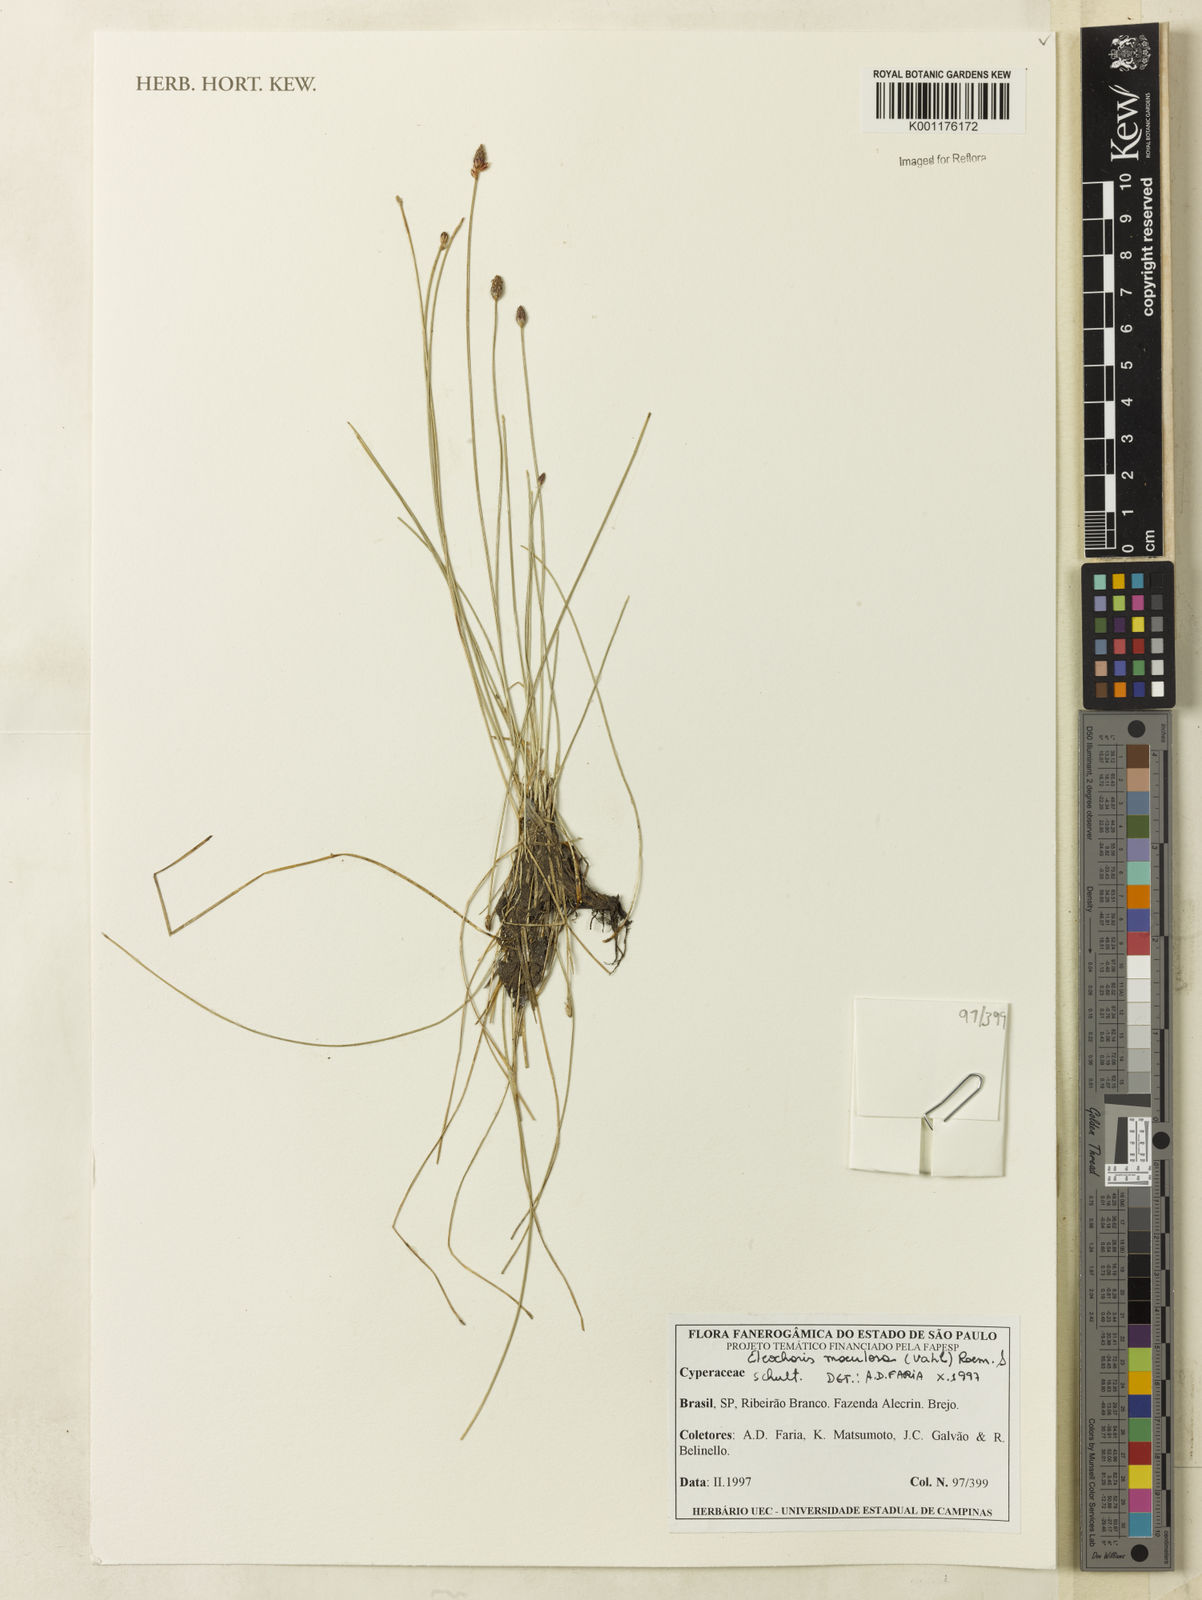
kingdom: Plantae
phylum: Tracheophyta
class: Liliopsida
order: Poales
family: Cyperaceae
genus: Eleocharis
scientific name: Eleocharis maculosa
